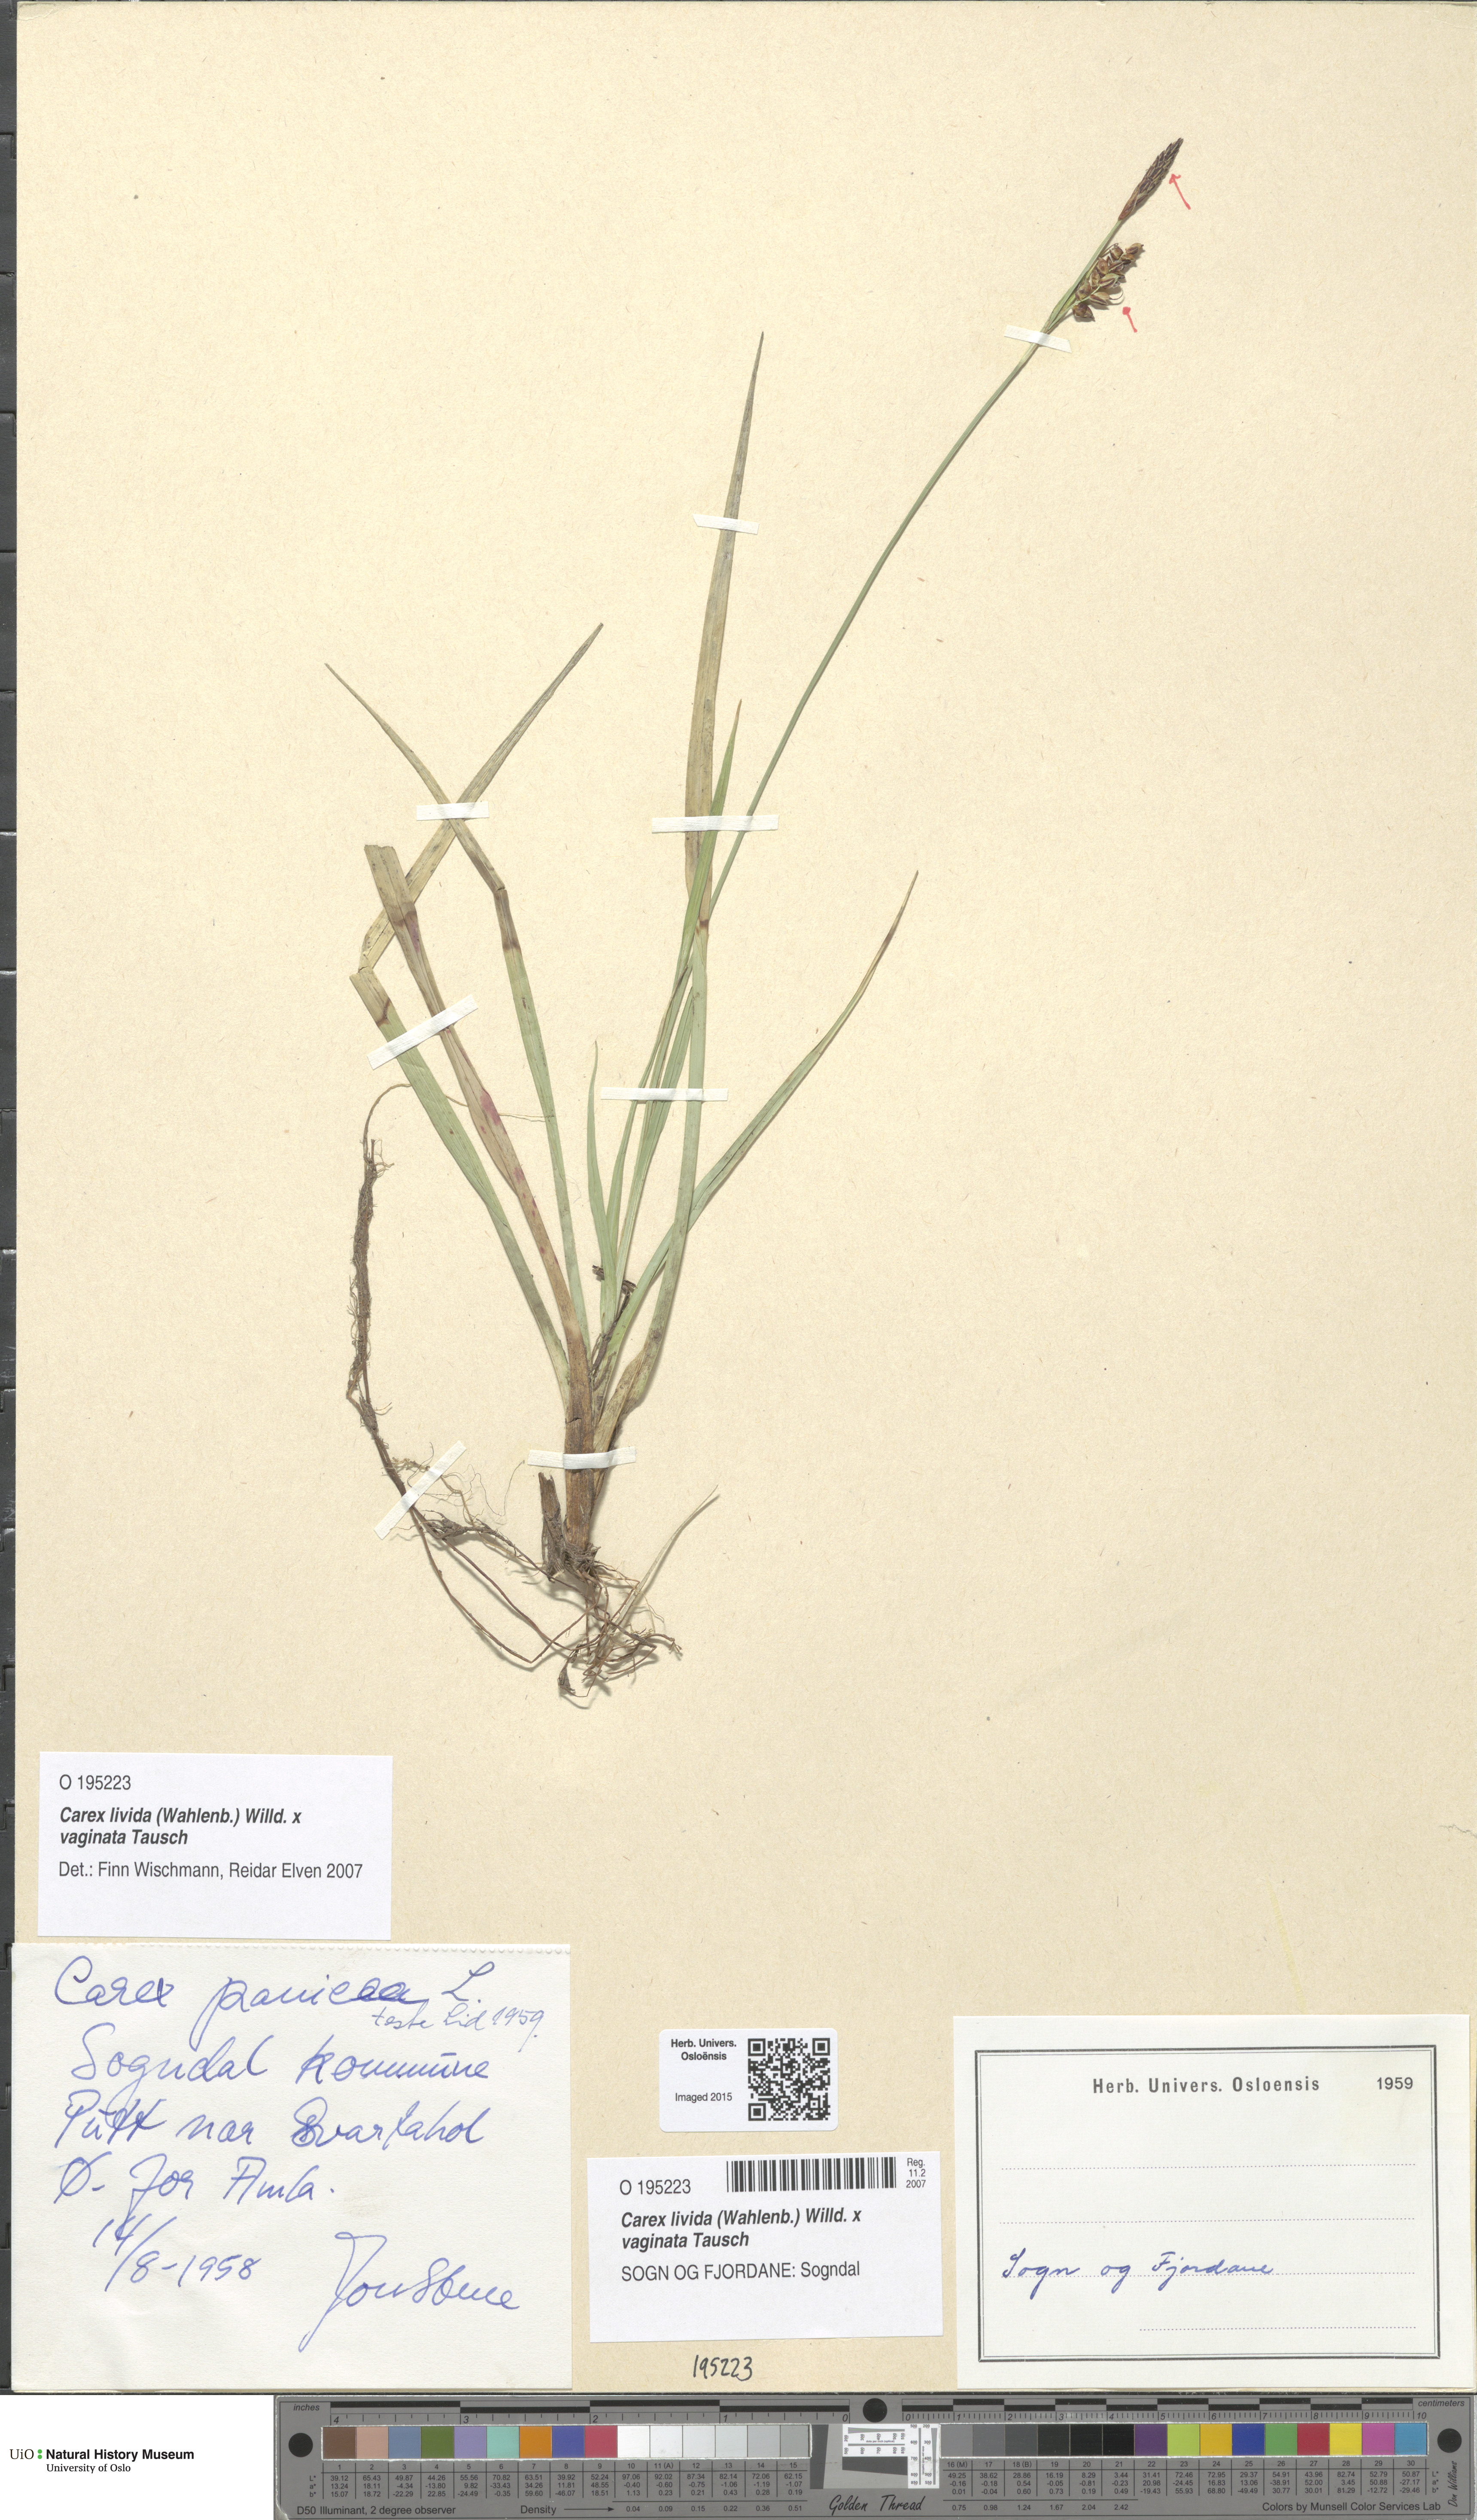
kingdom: Plantae
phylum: Tracheophyta
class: Liliopsida
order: Poales
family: Cyperaceae
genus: Carex
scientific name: Carex
